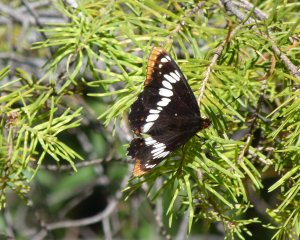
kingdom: Animalia
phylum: Arthropoda
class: Insecta
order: Lepidoptera
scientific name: Lepidoptera
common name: Butterflies
